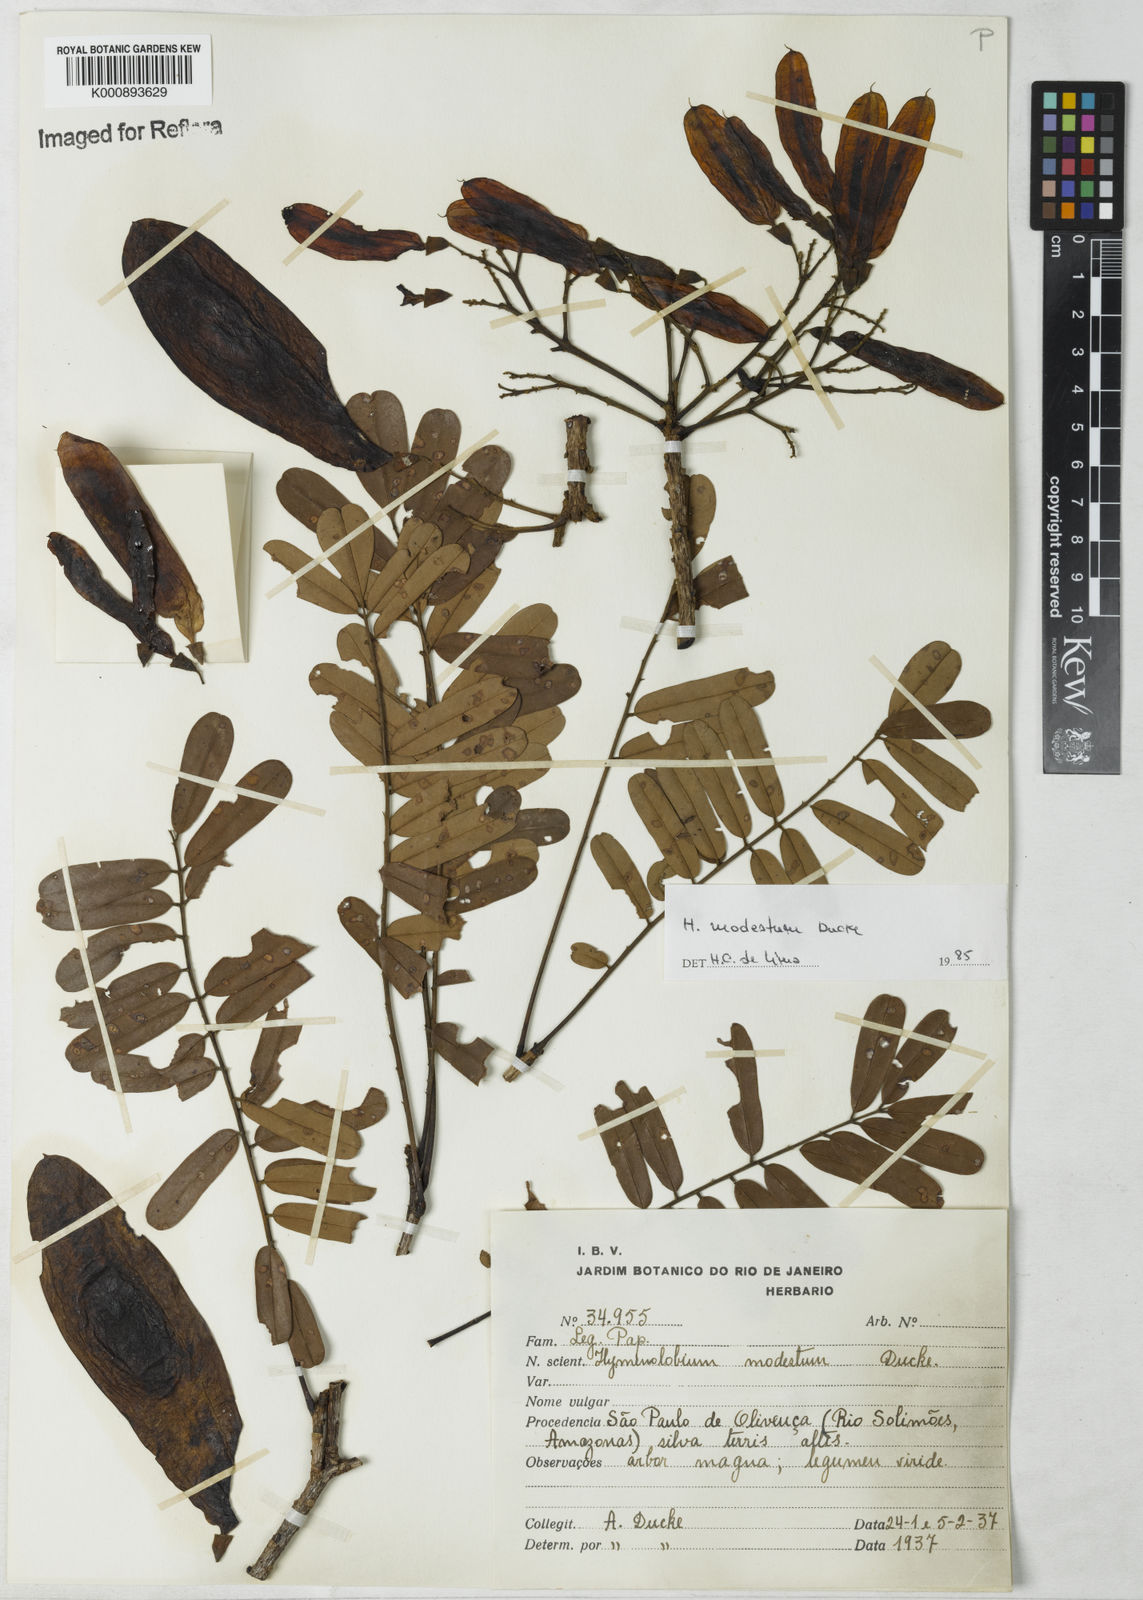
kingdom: Plantae
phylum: Tracheophyta
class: Magnoliopsida
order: Fabales
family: Fabaceae
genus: Hymenolobium
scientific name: Hymenolobium modestum
